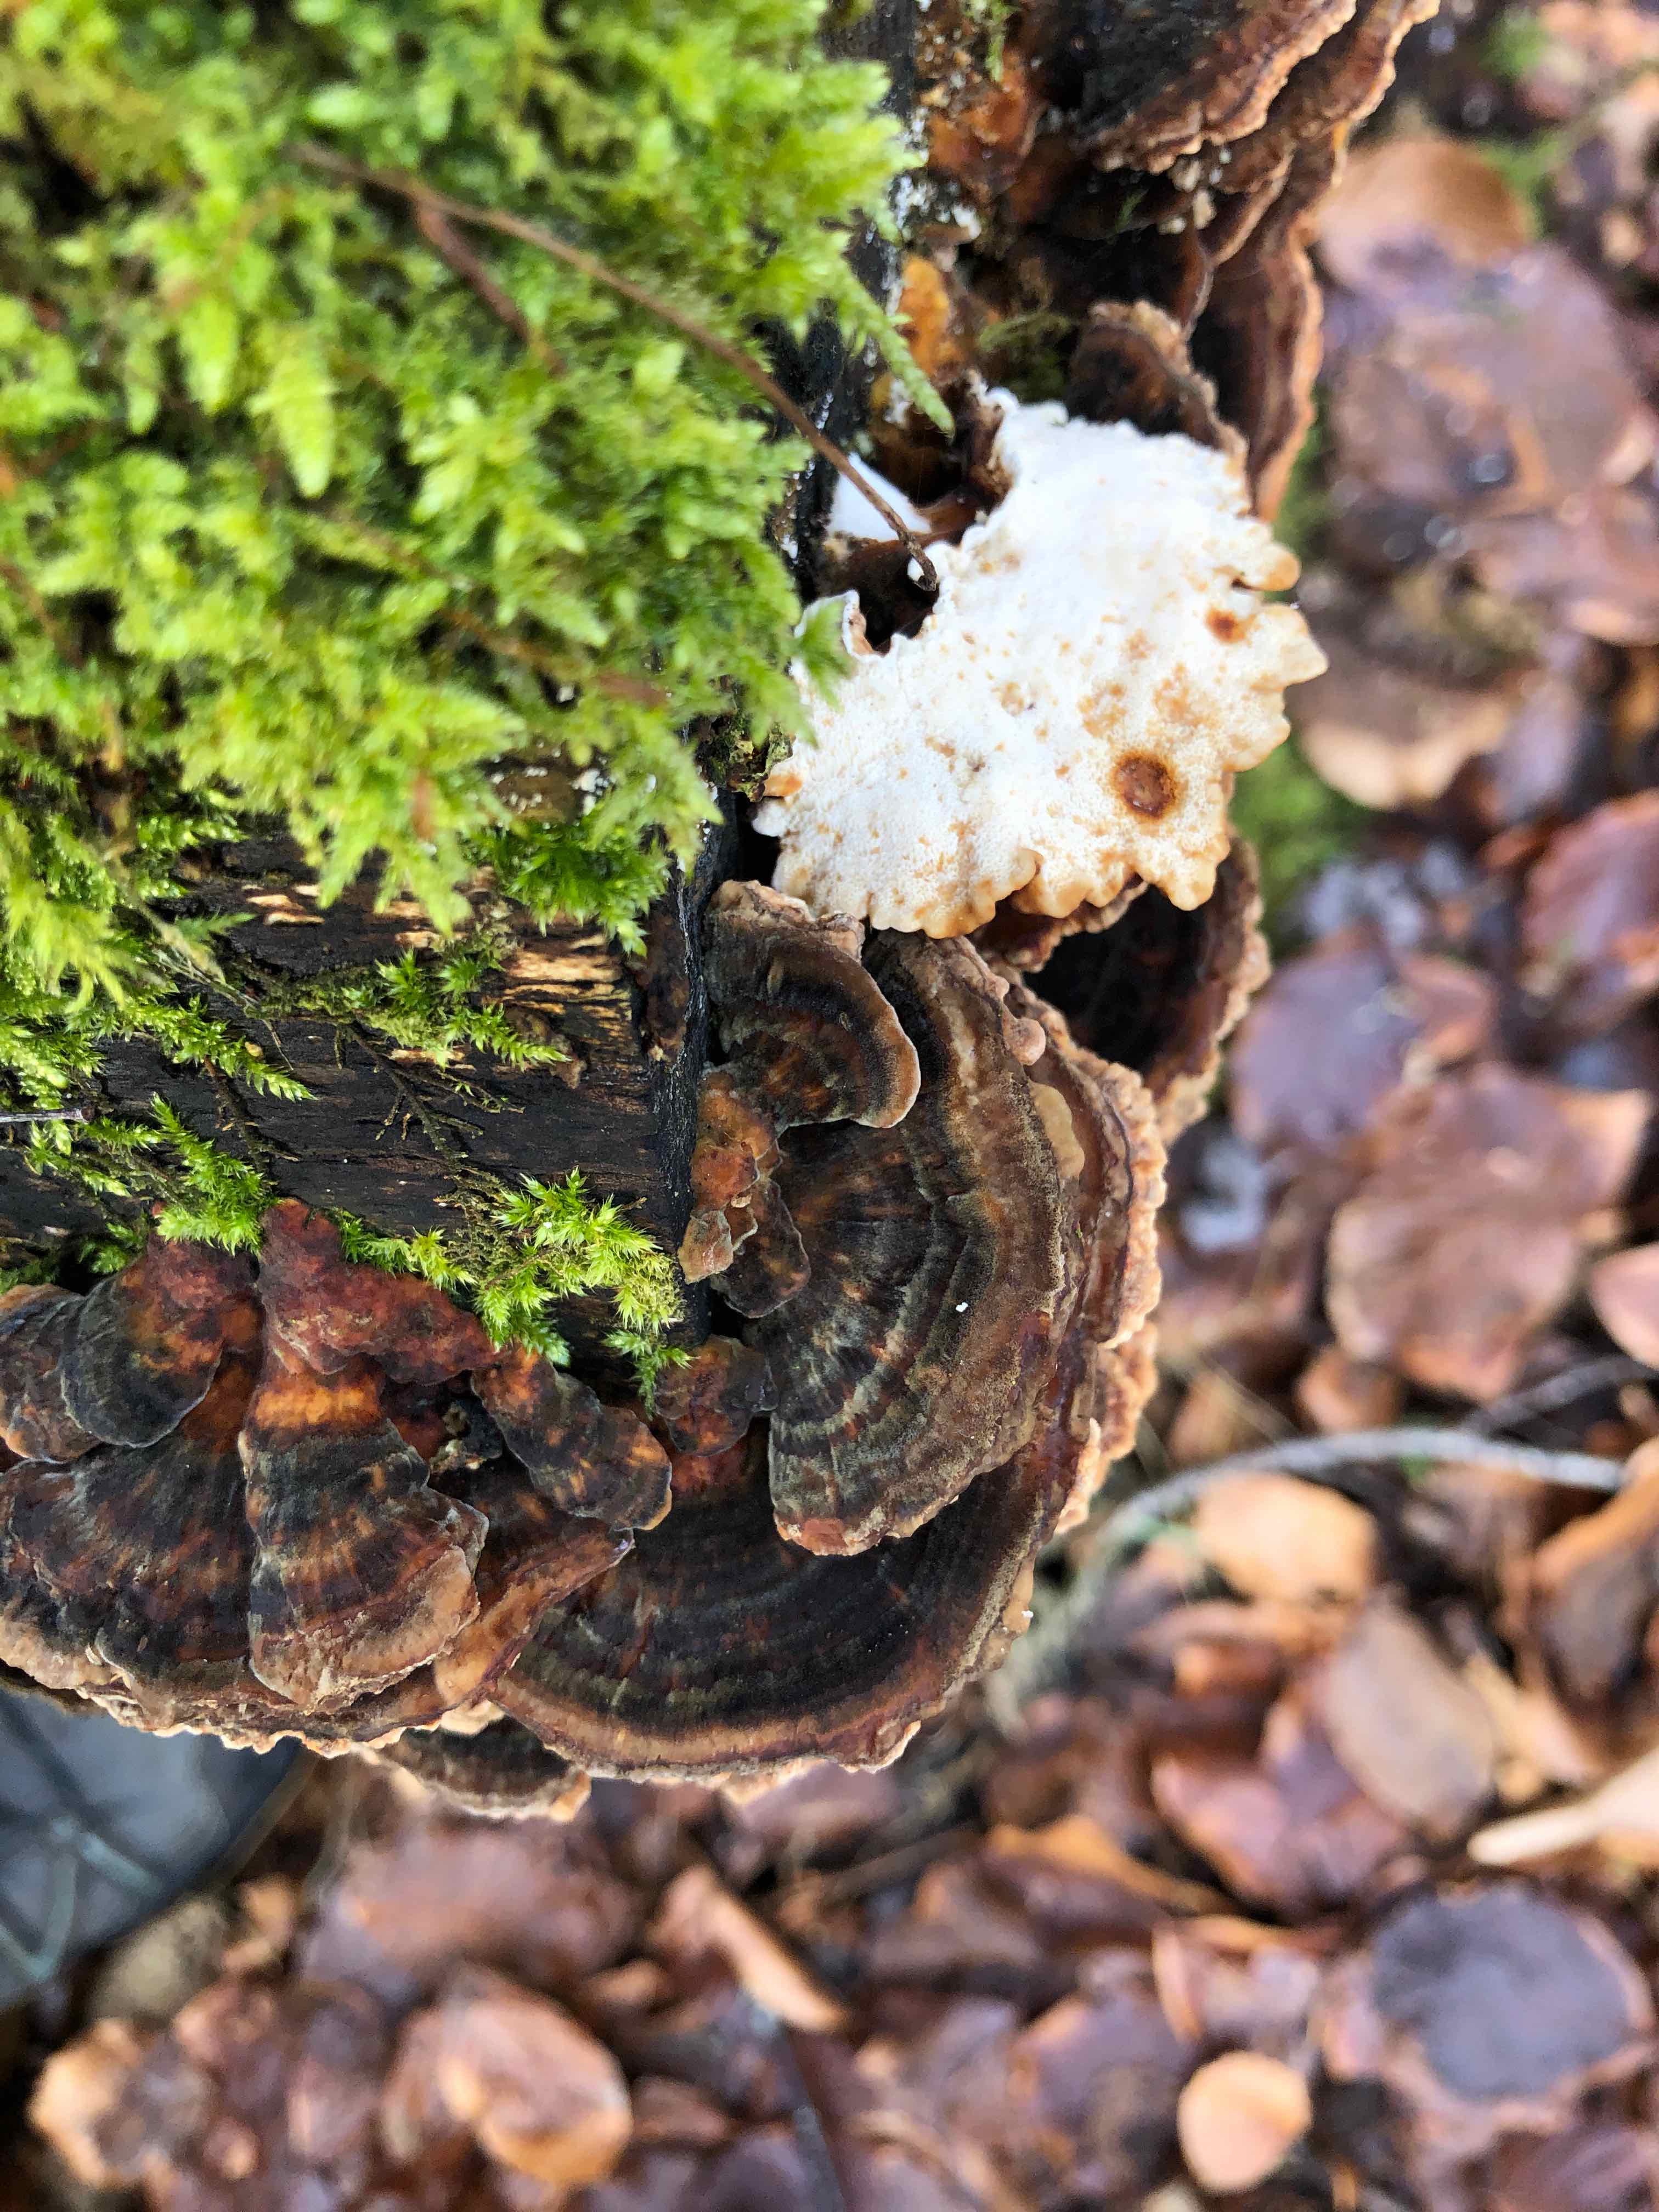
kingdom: Fungi
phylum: Basidiomycota
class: Agaricomycetes
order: Polyporales
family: Polyporaceae
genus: Trametes
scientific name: Trametes versicolor
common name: broget læderporesvamp
